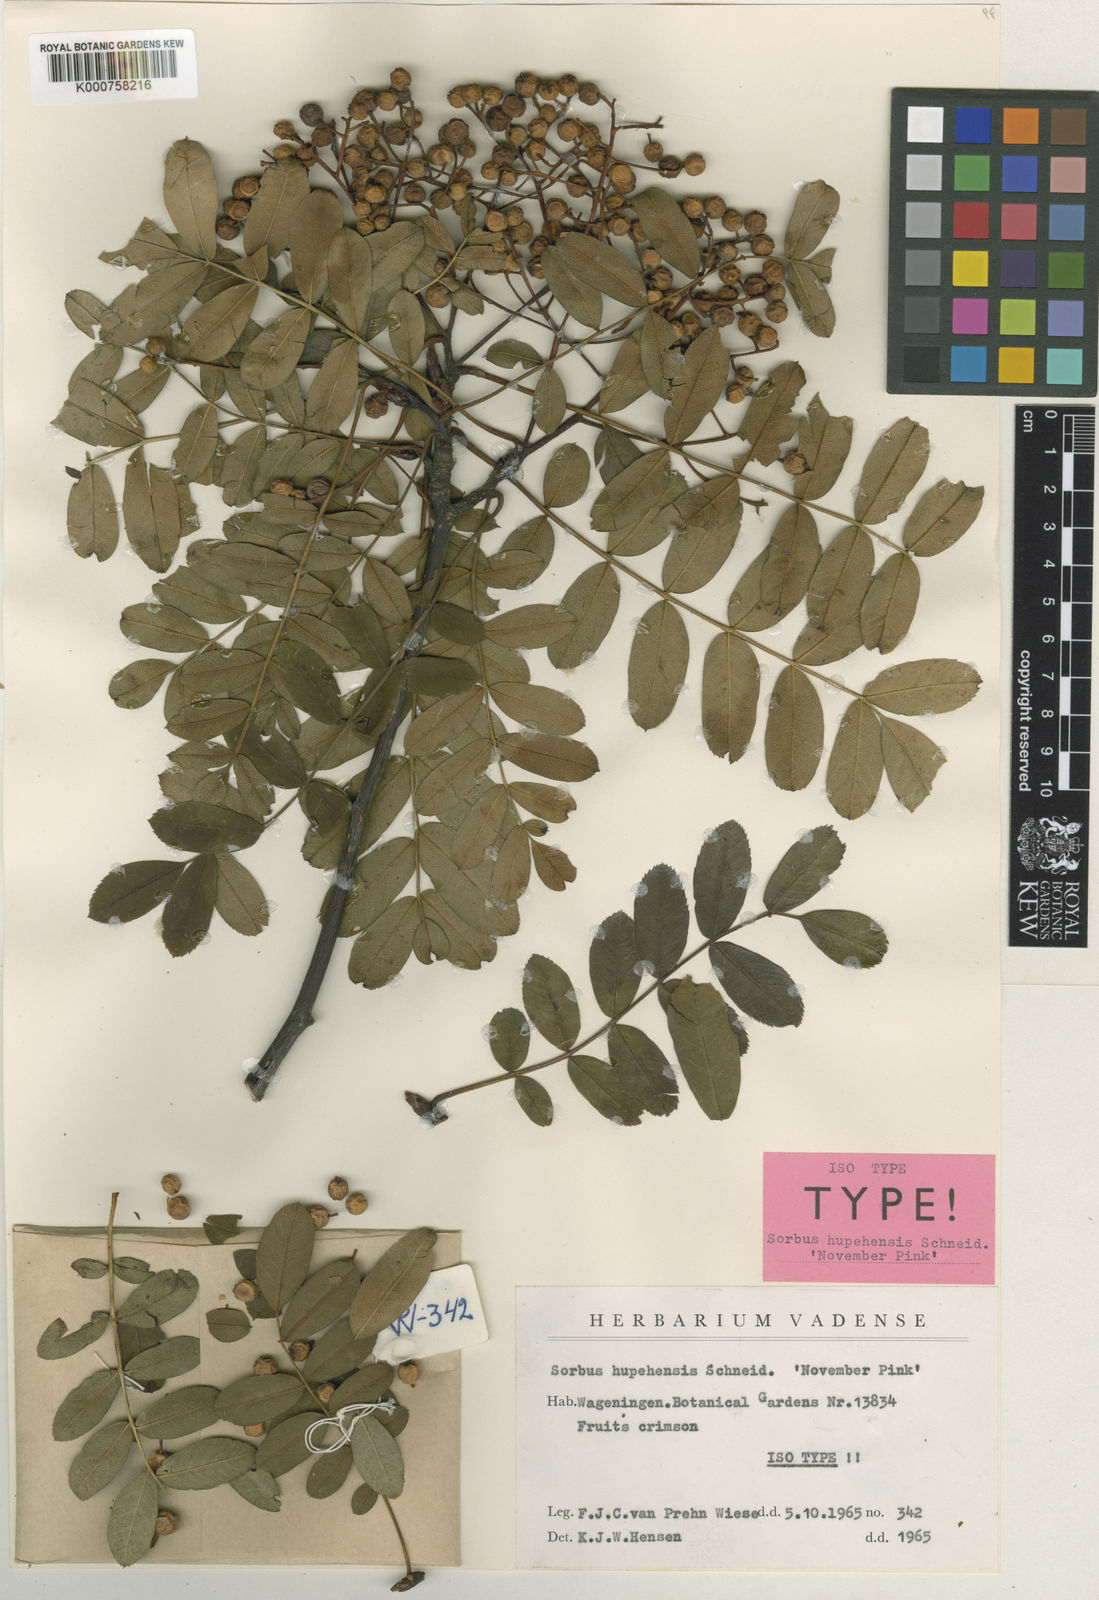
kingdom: Plantae
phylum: Tracheophyta
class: Magnoliopsida
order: Rosales
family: Rosaceae
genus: Sorbus
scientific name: Sorbus hupehensis
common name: Hupeh rowan
